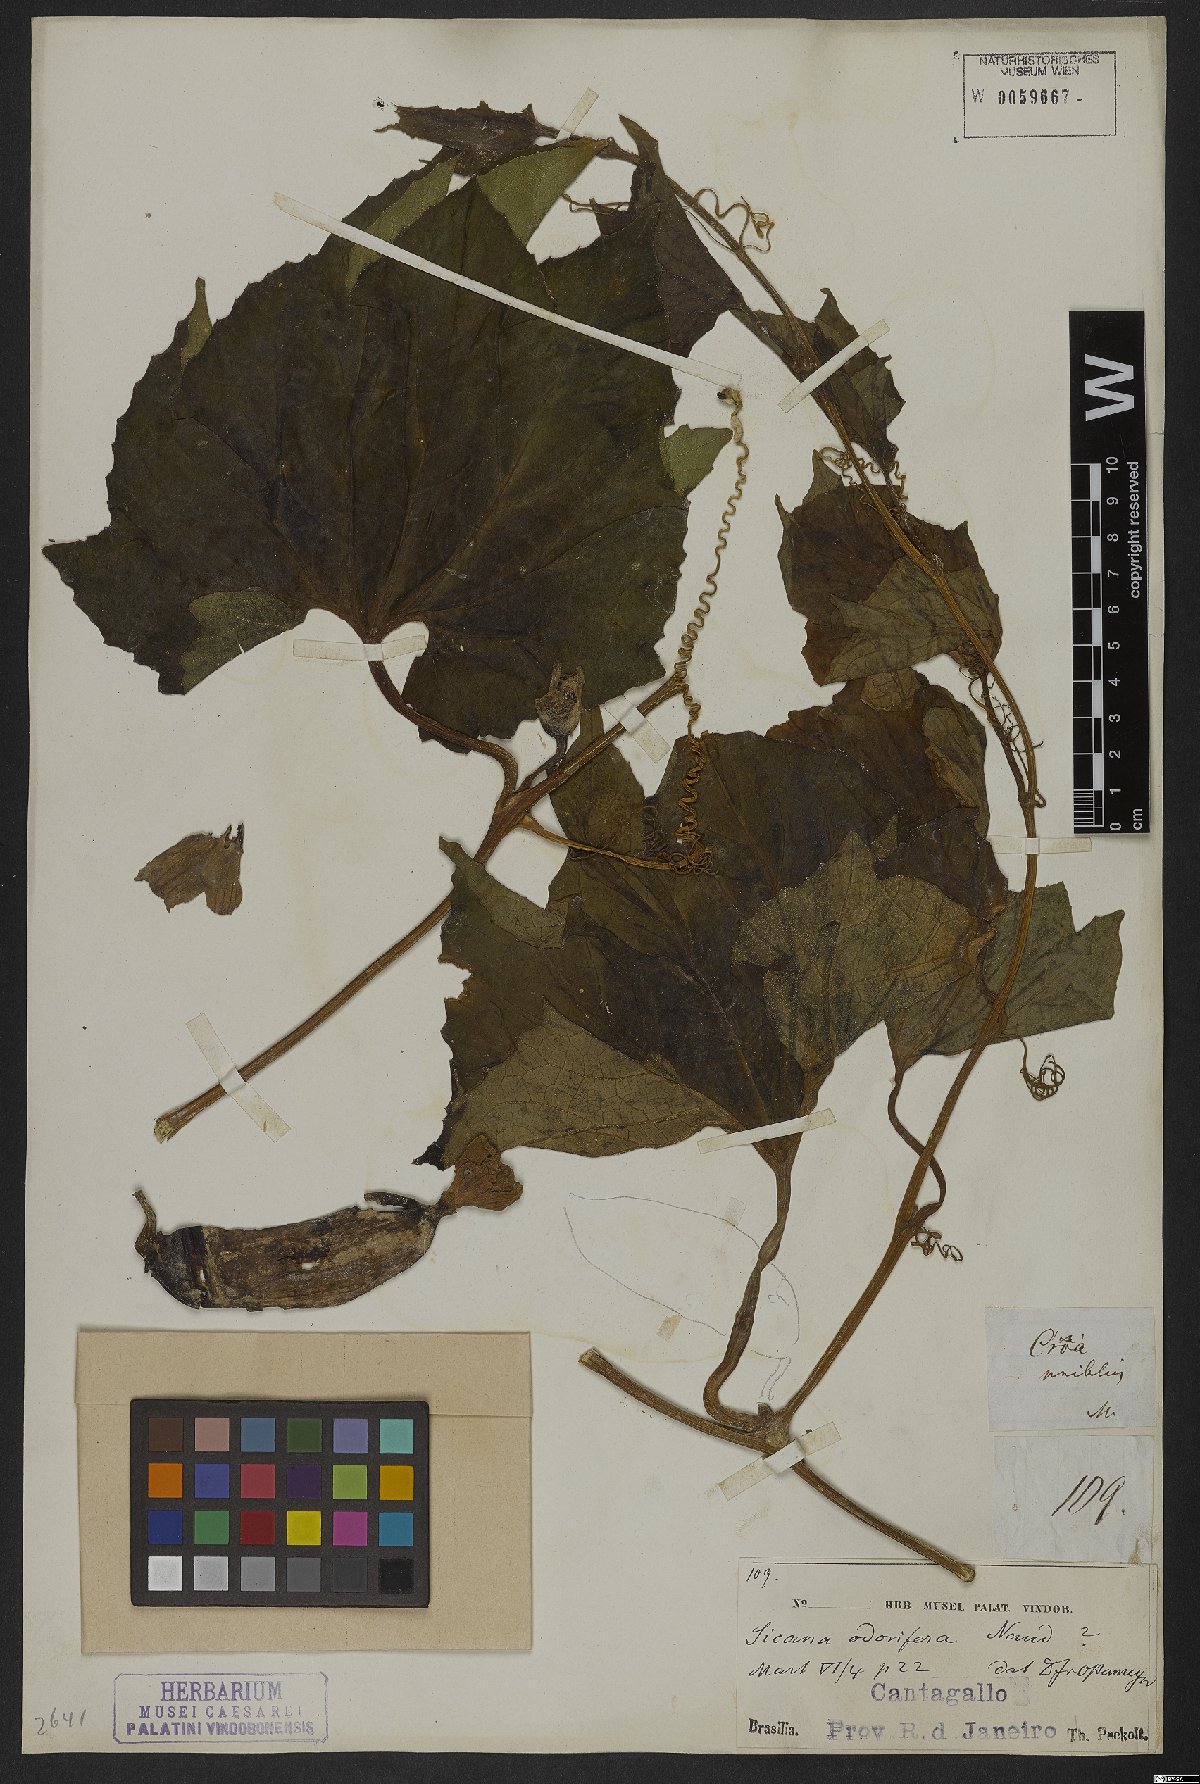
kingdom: Plantae
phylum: Tracheophyta
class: Magnoliopsida
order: Cucurbitales
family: Cucurbitaceae
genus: Sicana
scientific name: Sicana odorifera
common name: Casabanana
